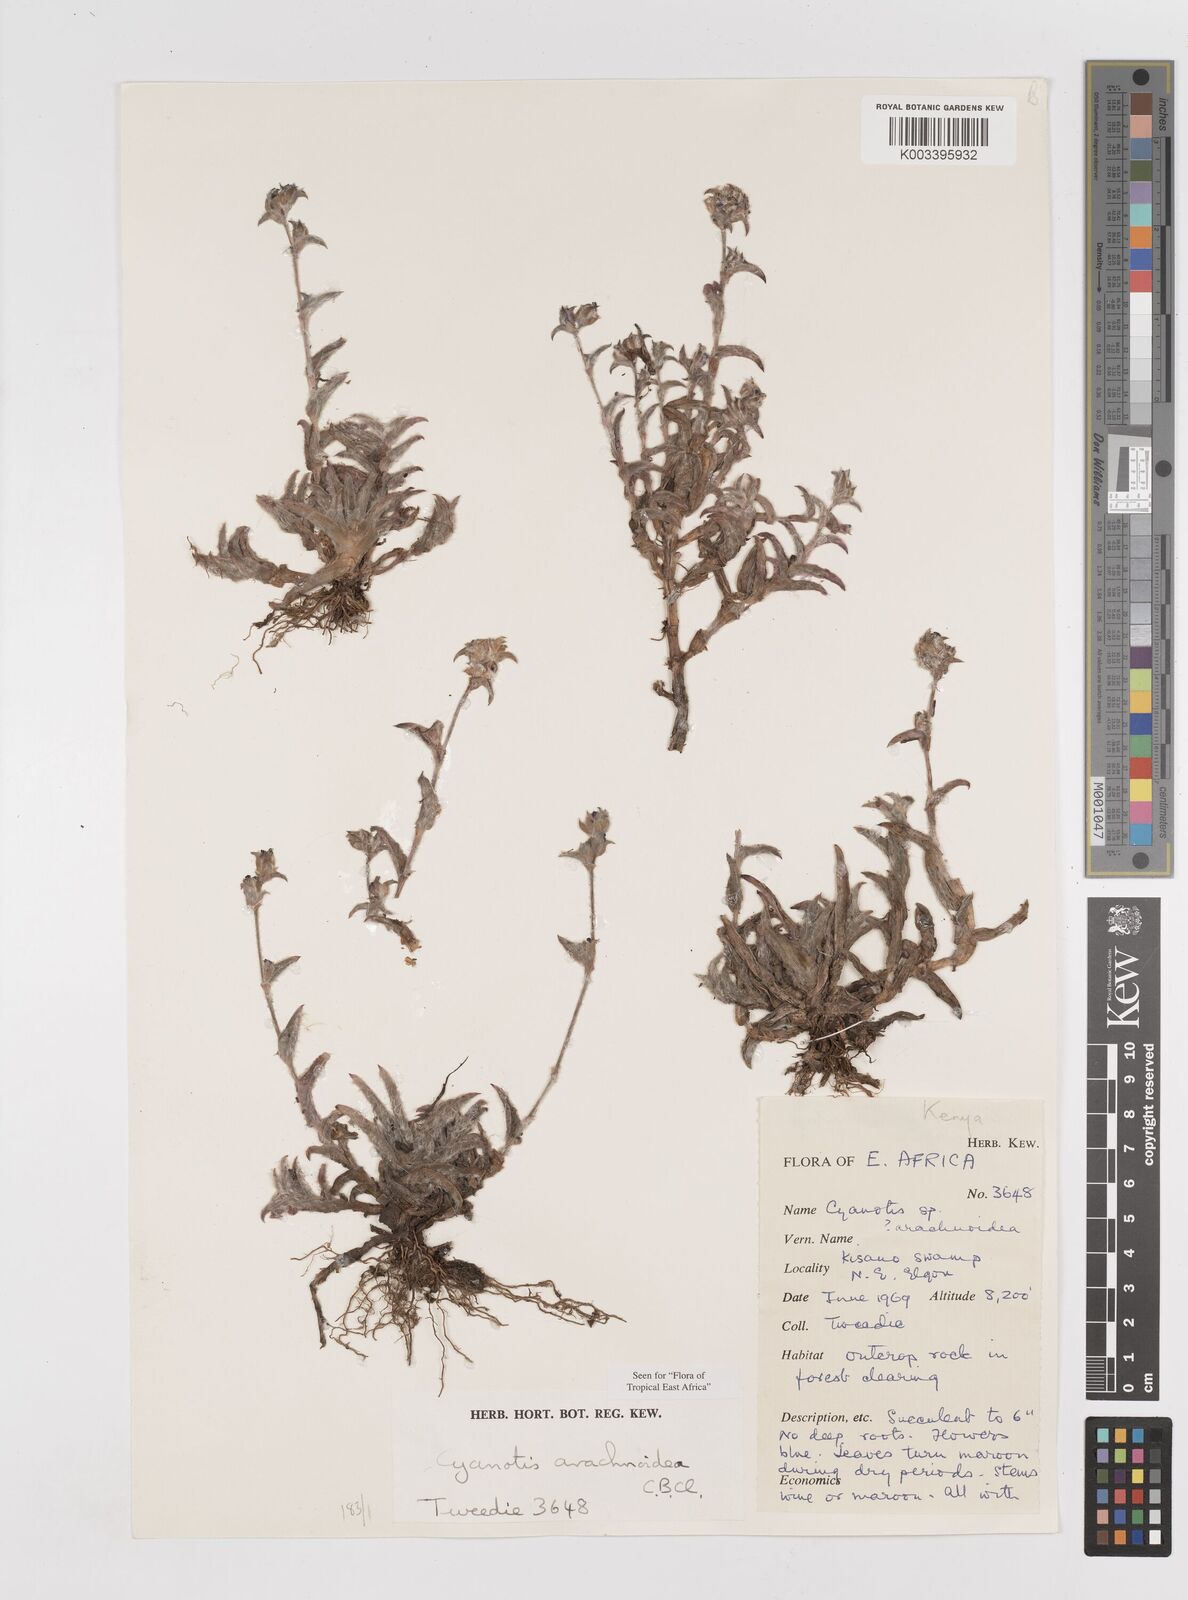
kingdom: Plantae
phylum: Tracheophyta
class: Liliopsida
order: Commelinales
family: Commelinaceae
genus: Cyanotis
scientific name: Cyanotis arachnoidea
